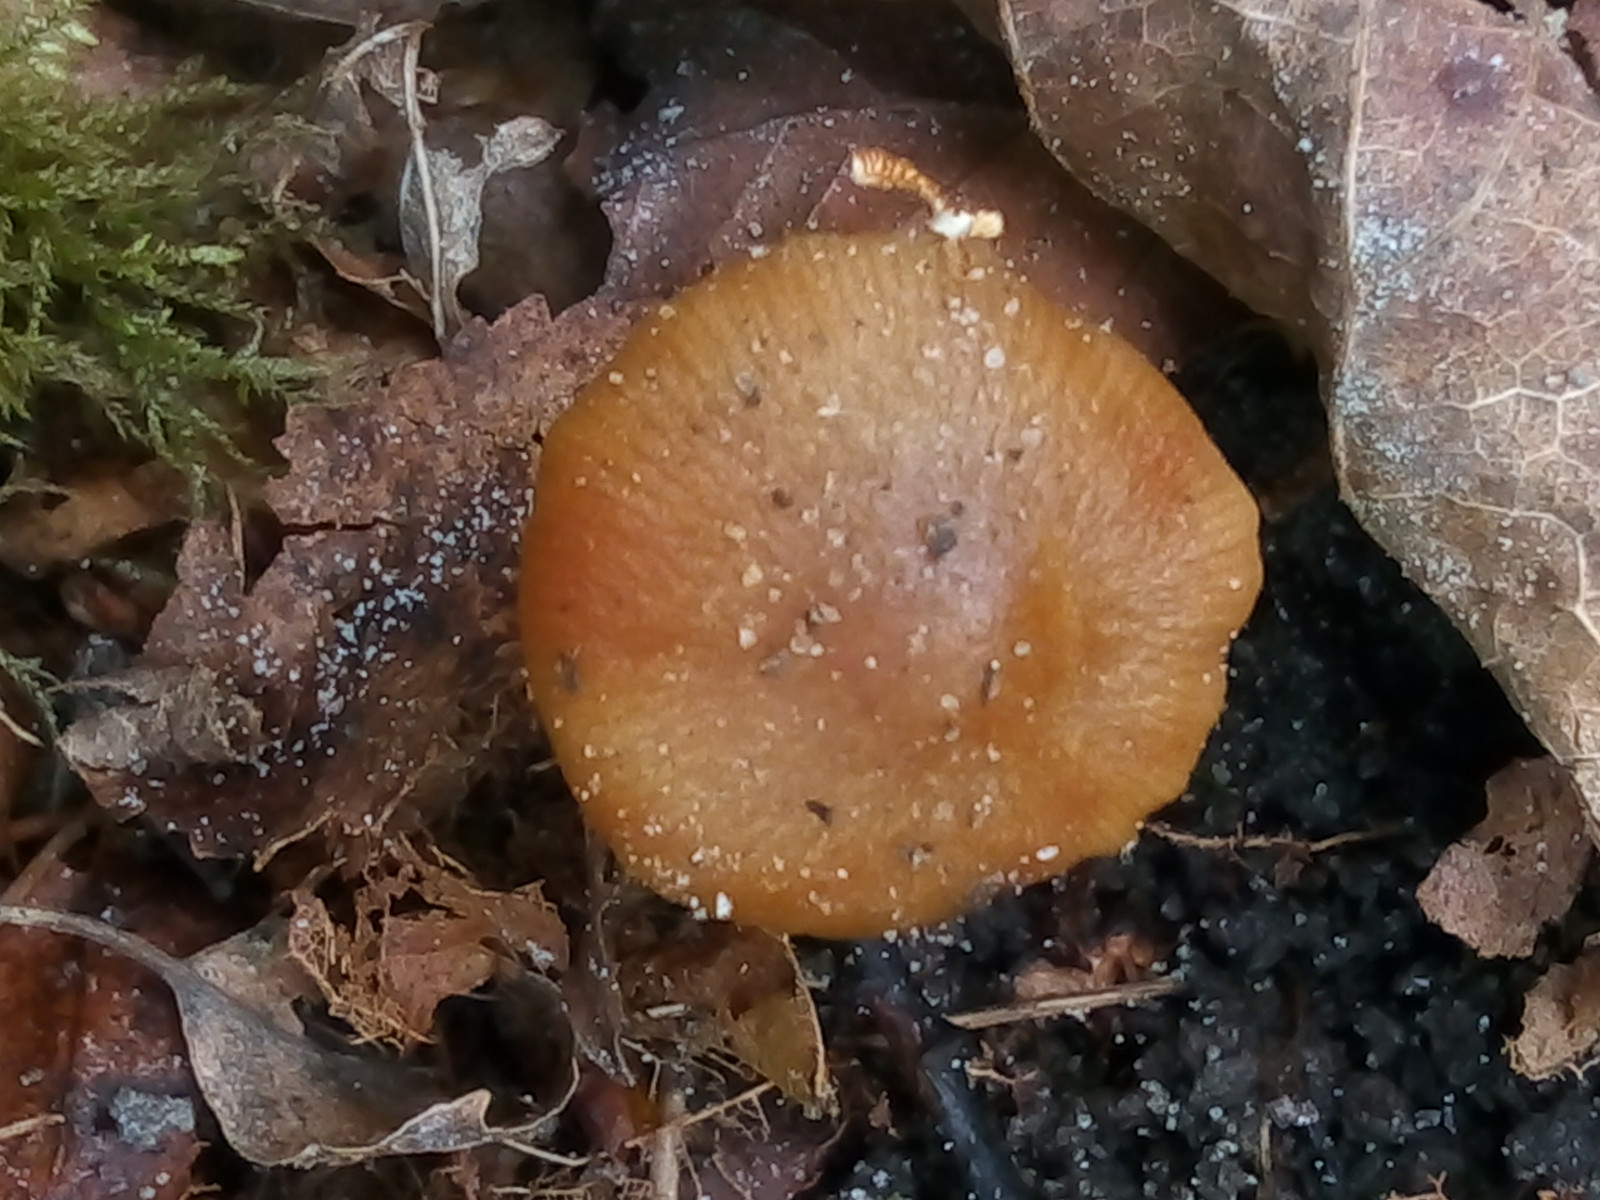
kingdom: Fungi
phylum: Basidiomycota
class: Agaricomycetes
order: Agaricales
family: Bolbitiaceae
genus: Conocybe
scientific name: Conocybe aporos
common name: tidlig dansehat
